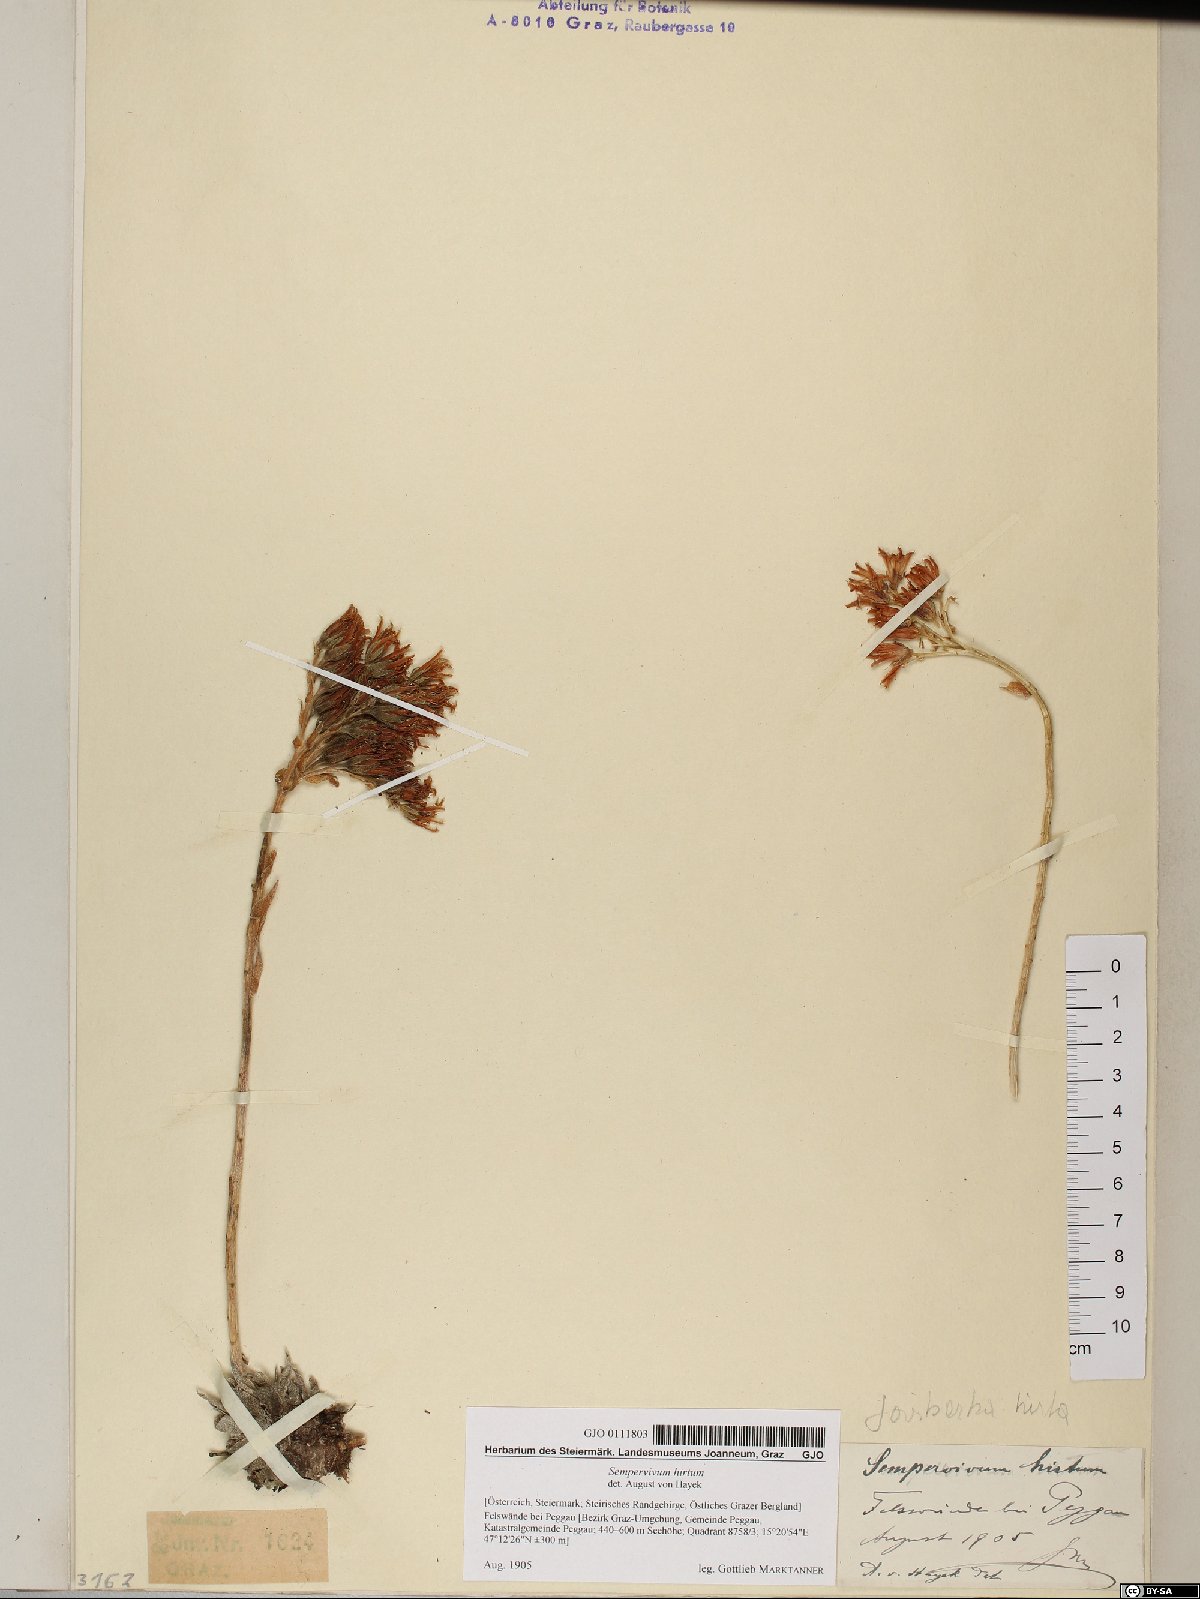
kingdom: Plantae
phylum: Tracheophyta
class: Magnoliopsida
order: Saxifragales
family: Crassulaceae
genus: Sempervivum
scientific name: Sempervivum globiferum
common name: Rolling hen-and-chicks
